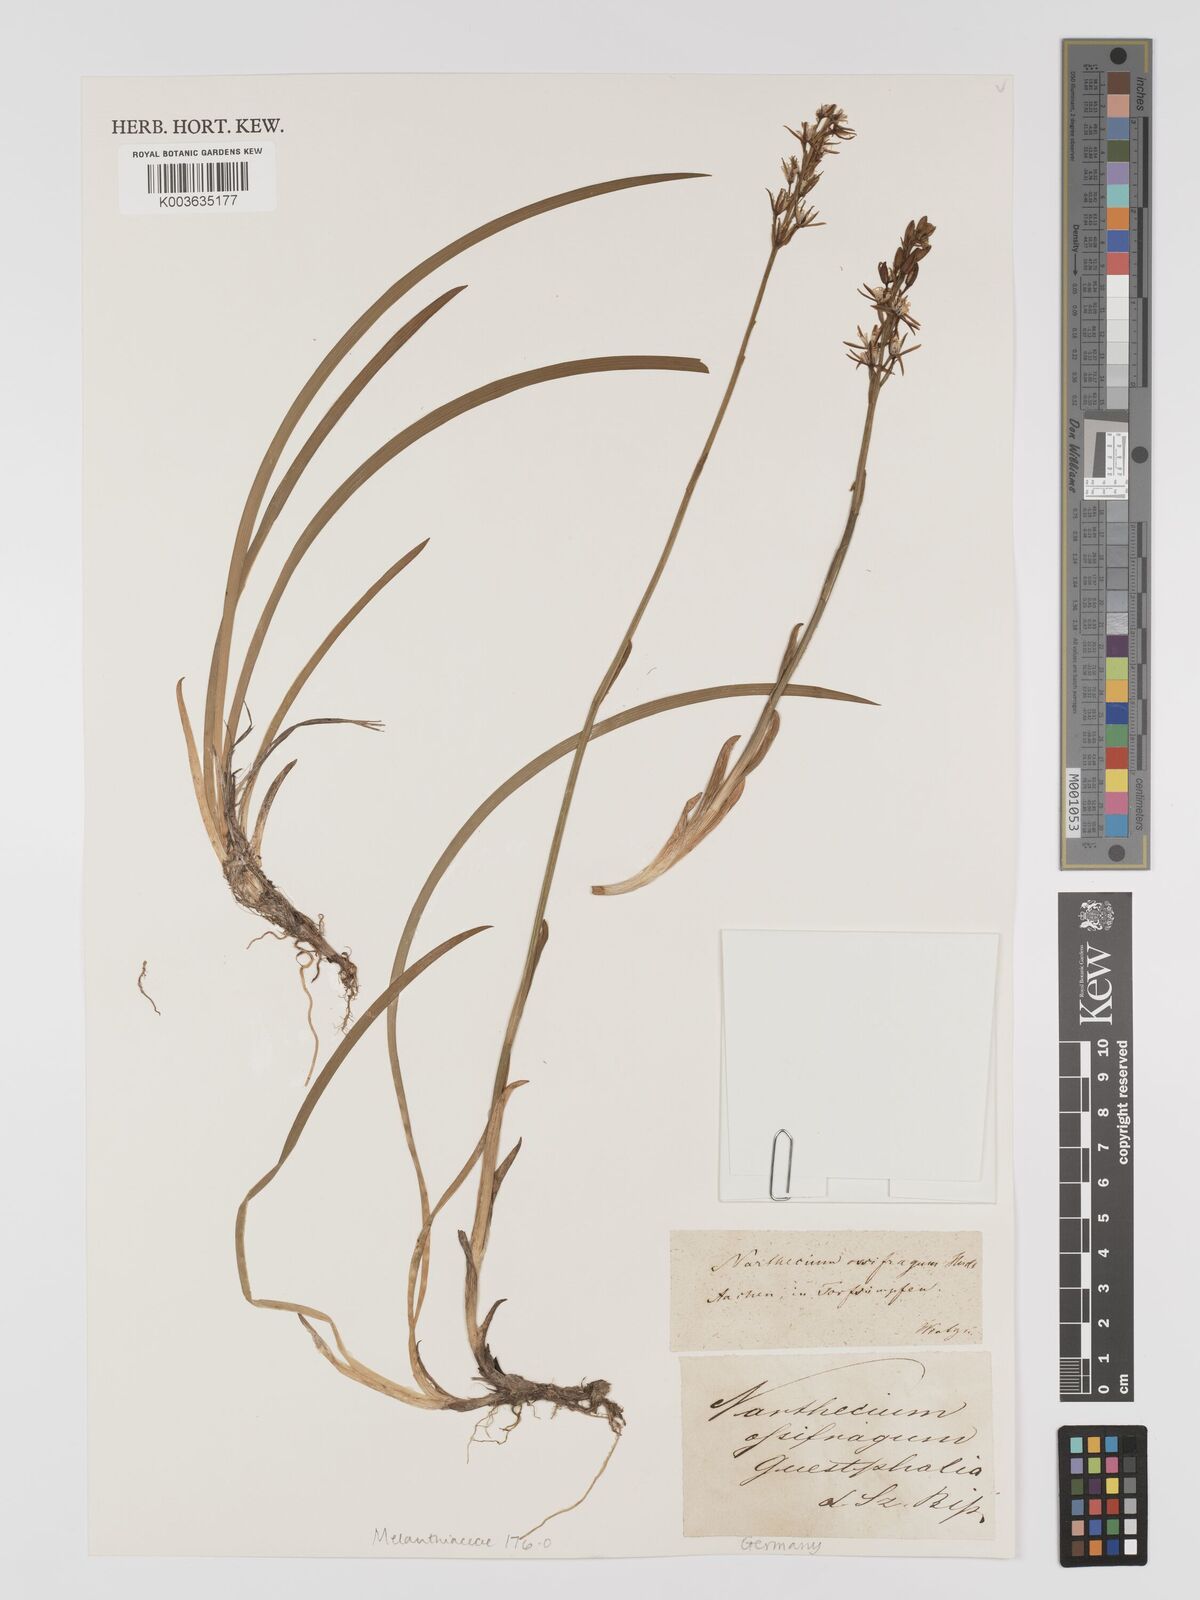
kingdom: Plantae
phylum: Tracheophyta
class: Liliopsida
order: Dioscoreales
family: Nartheciaceae
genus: Narthecium
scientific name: Narthecium ossifragum
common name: Bog asphodel
